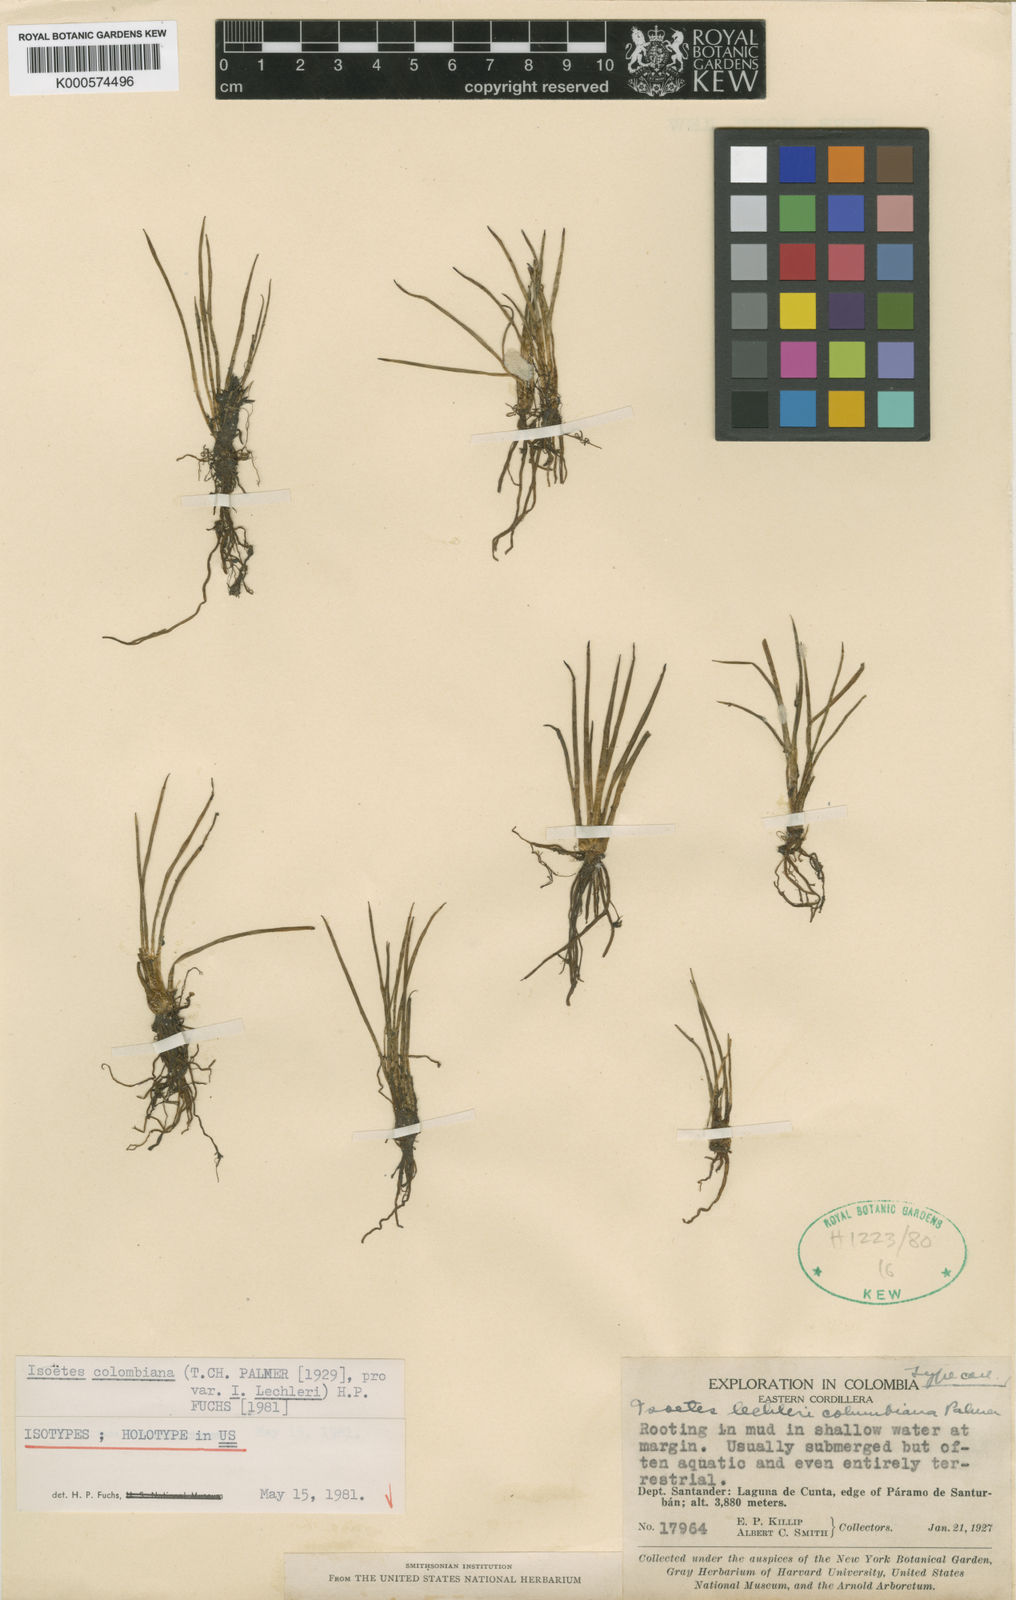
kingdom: Plantae
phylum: Tracheophyta
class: Lycopodiopsida
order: Isoetales
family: Isoetaceae
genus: Isoetes
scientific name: Isoetes karstenii
